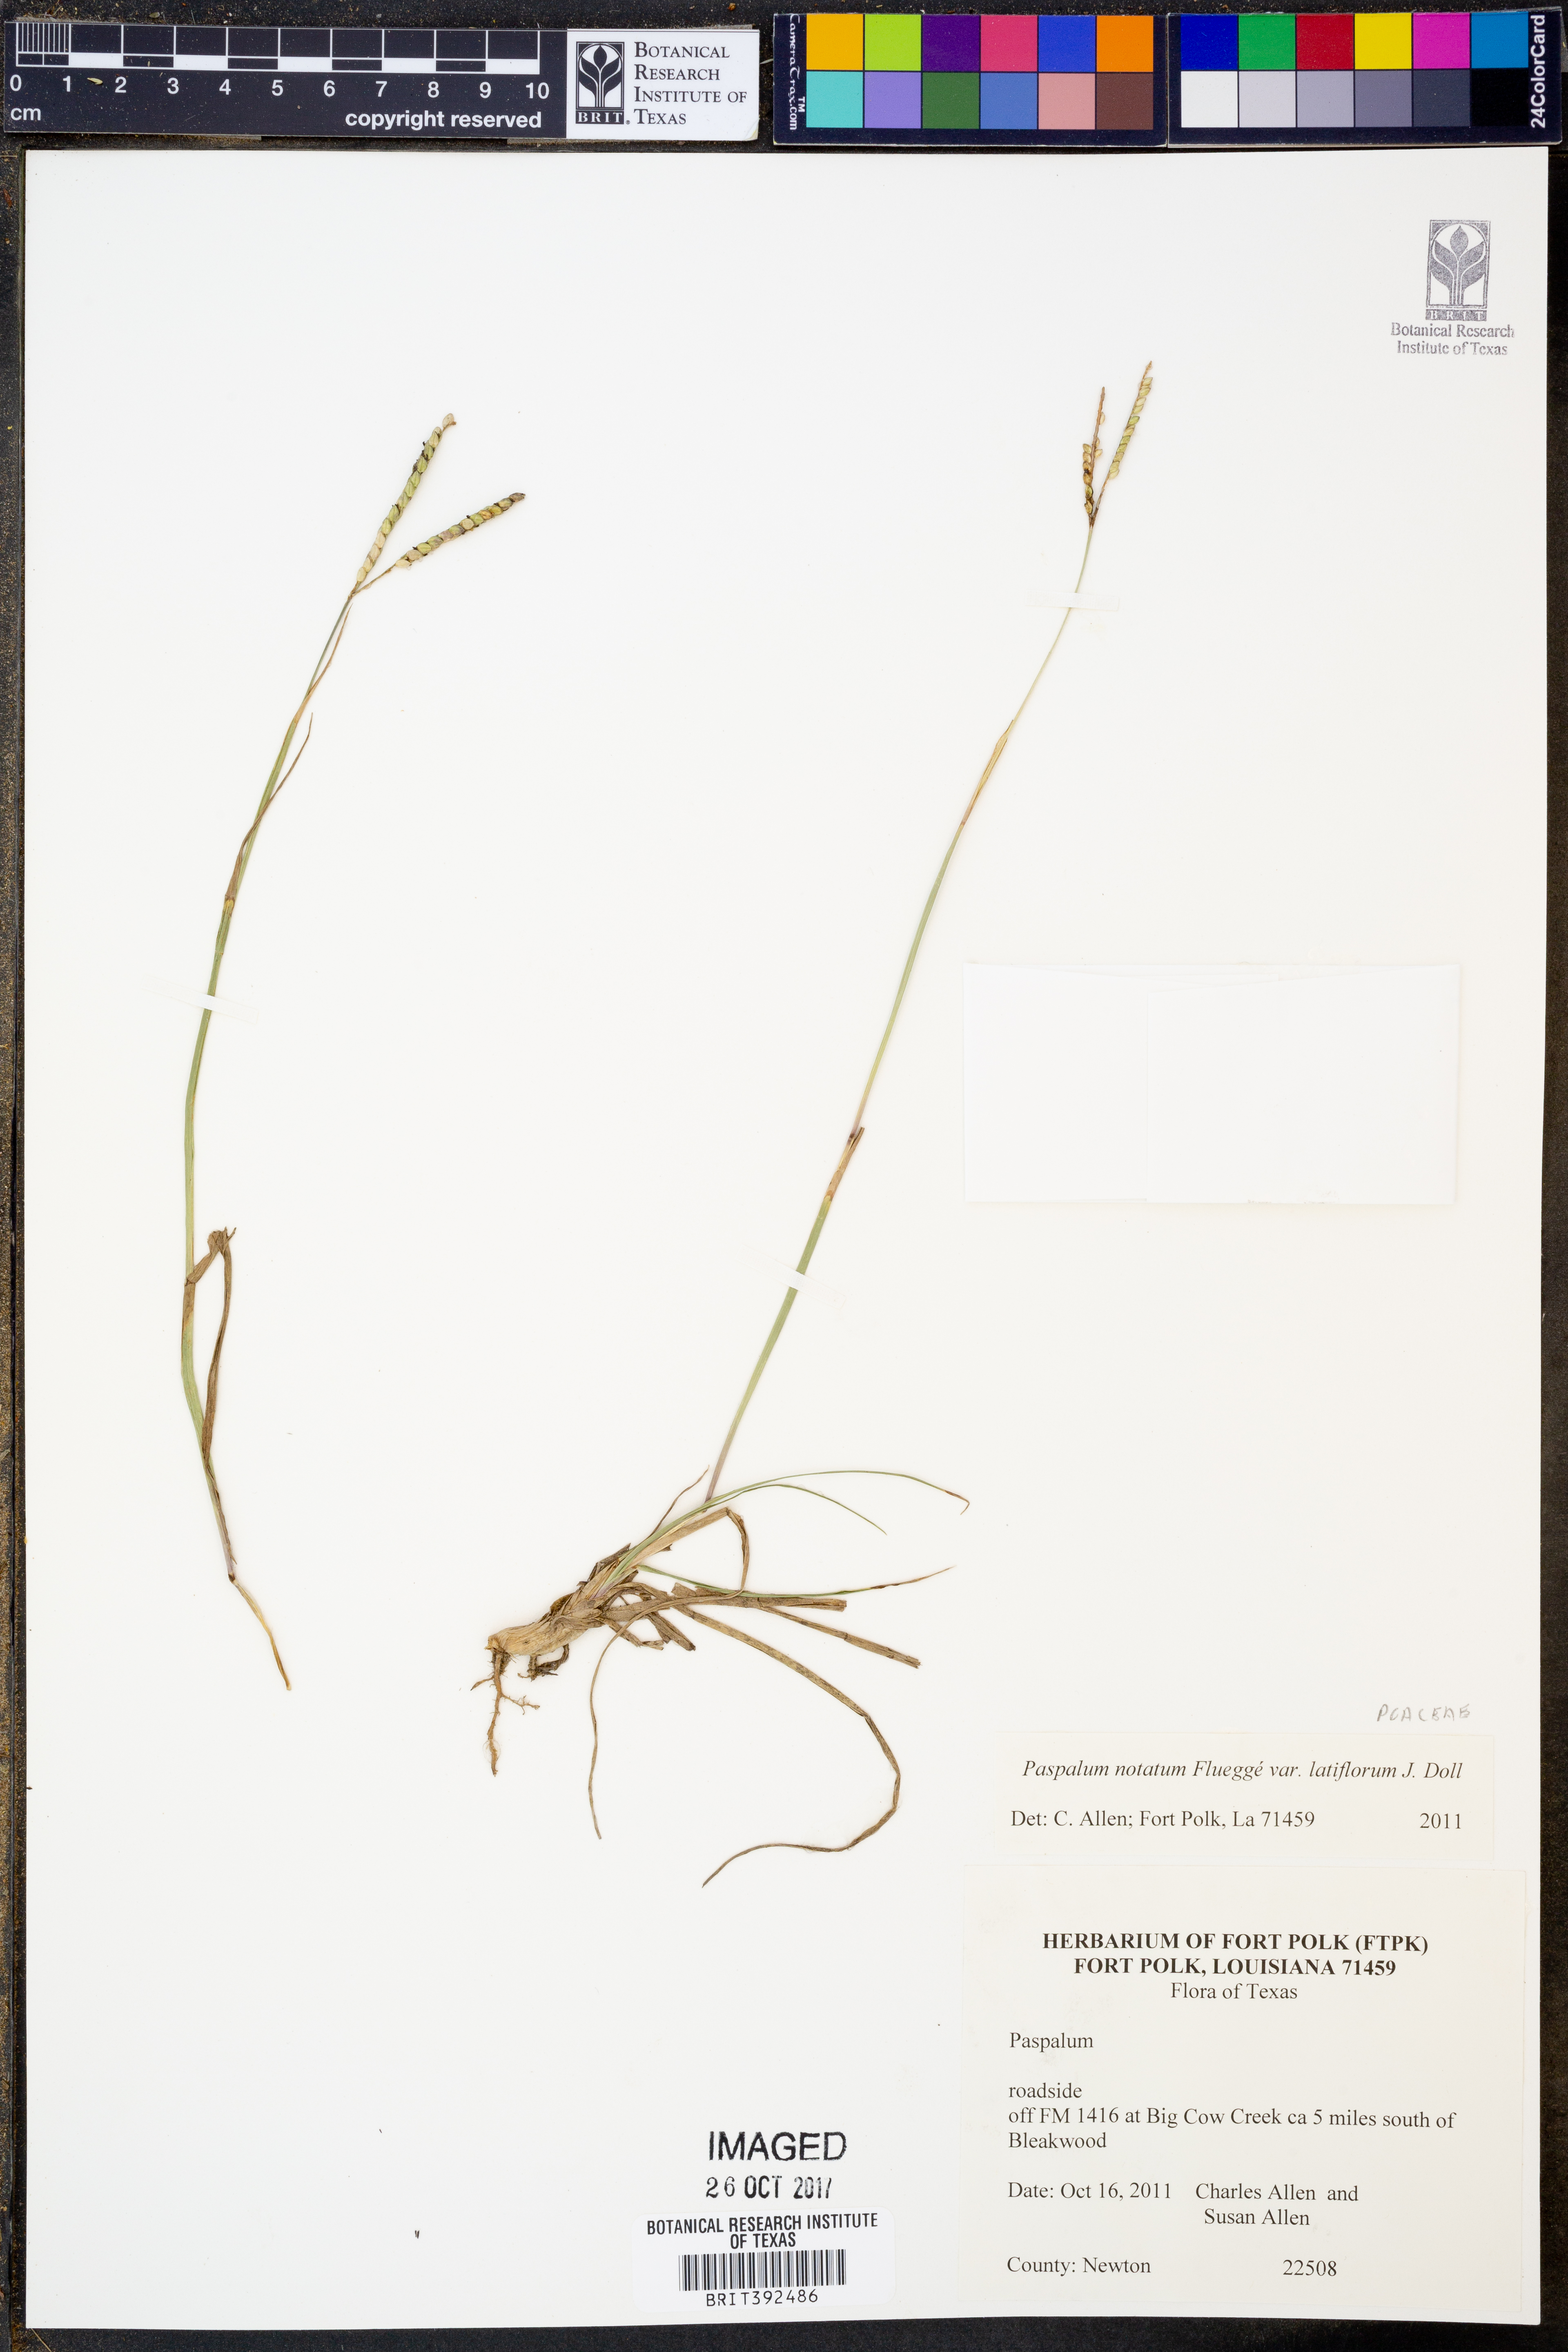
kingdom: Plantae
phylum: Tracheophyta
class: Liliopsida
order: Poales
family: Poaceae
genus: Paspalum
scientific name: Paspalum notatum
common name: Bahiagrass
